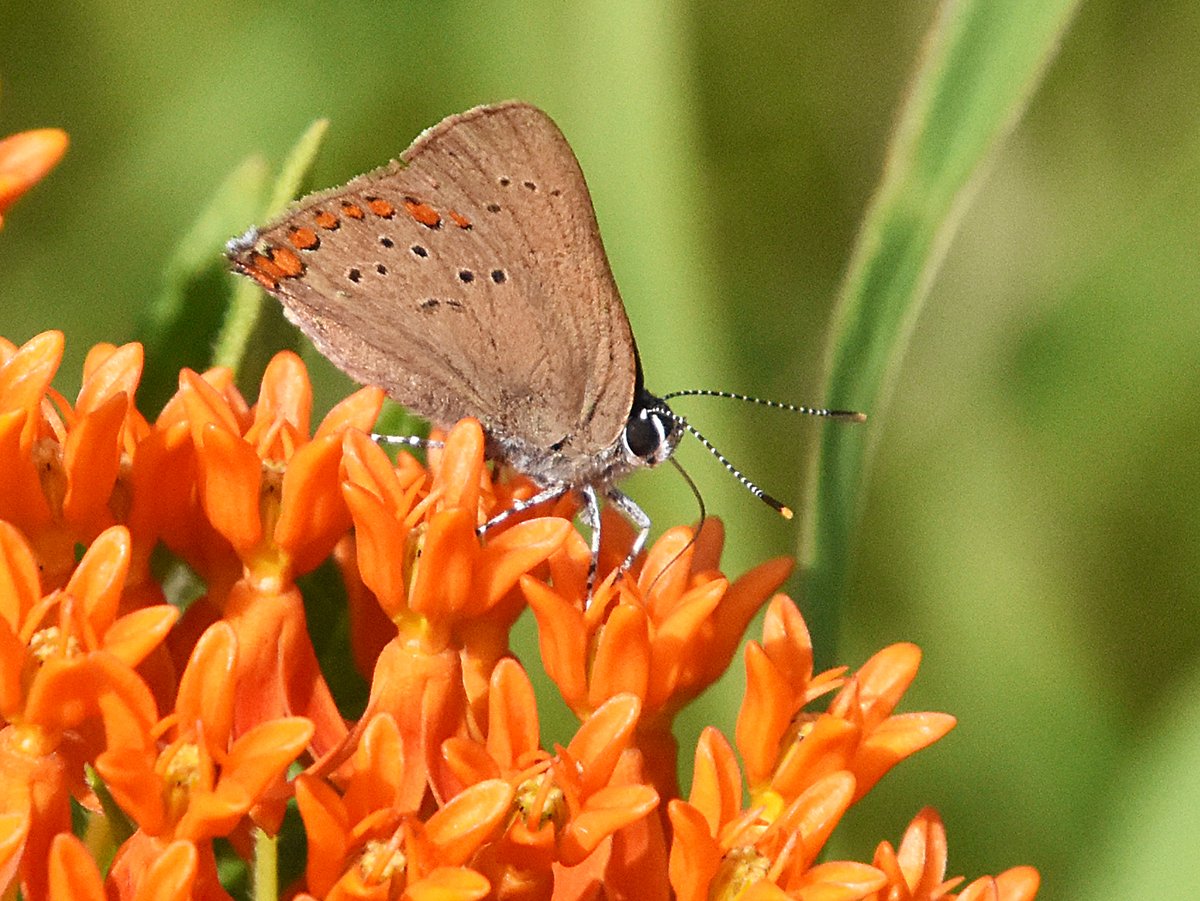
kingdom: Animalia
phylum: Arthropoda
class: Insecta
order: Lepidoptera
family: Lycaenidae
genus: Harkenclenus
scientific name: Harkenclenus titus
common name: Coral Hairstreak
